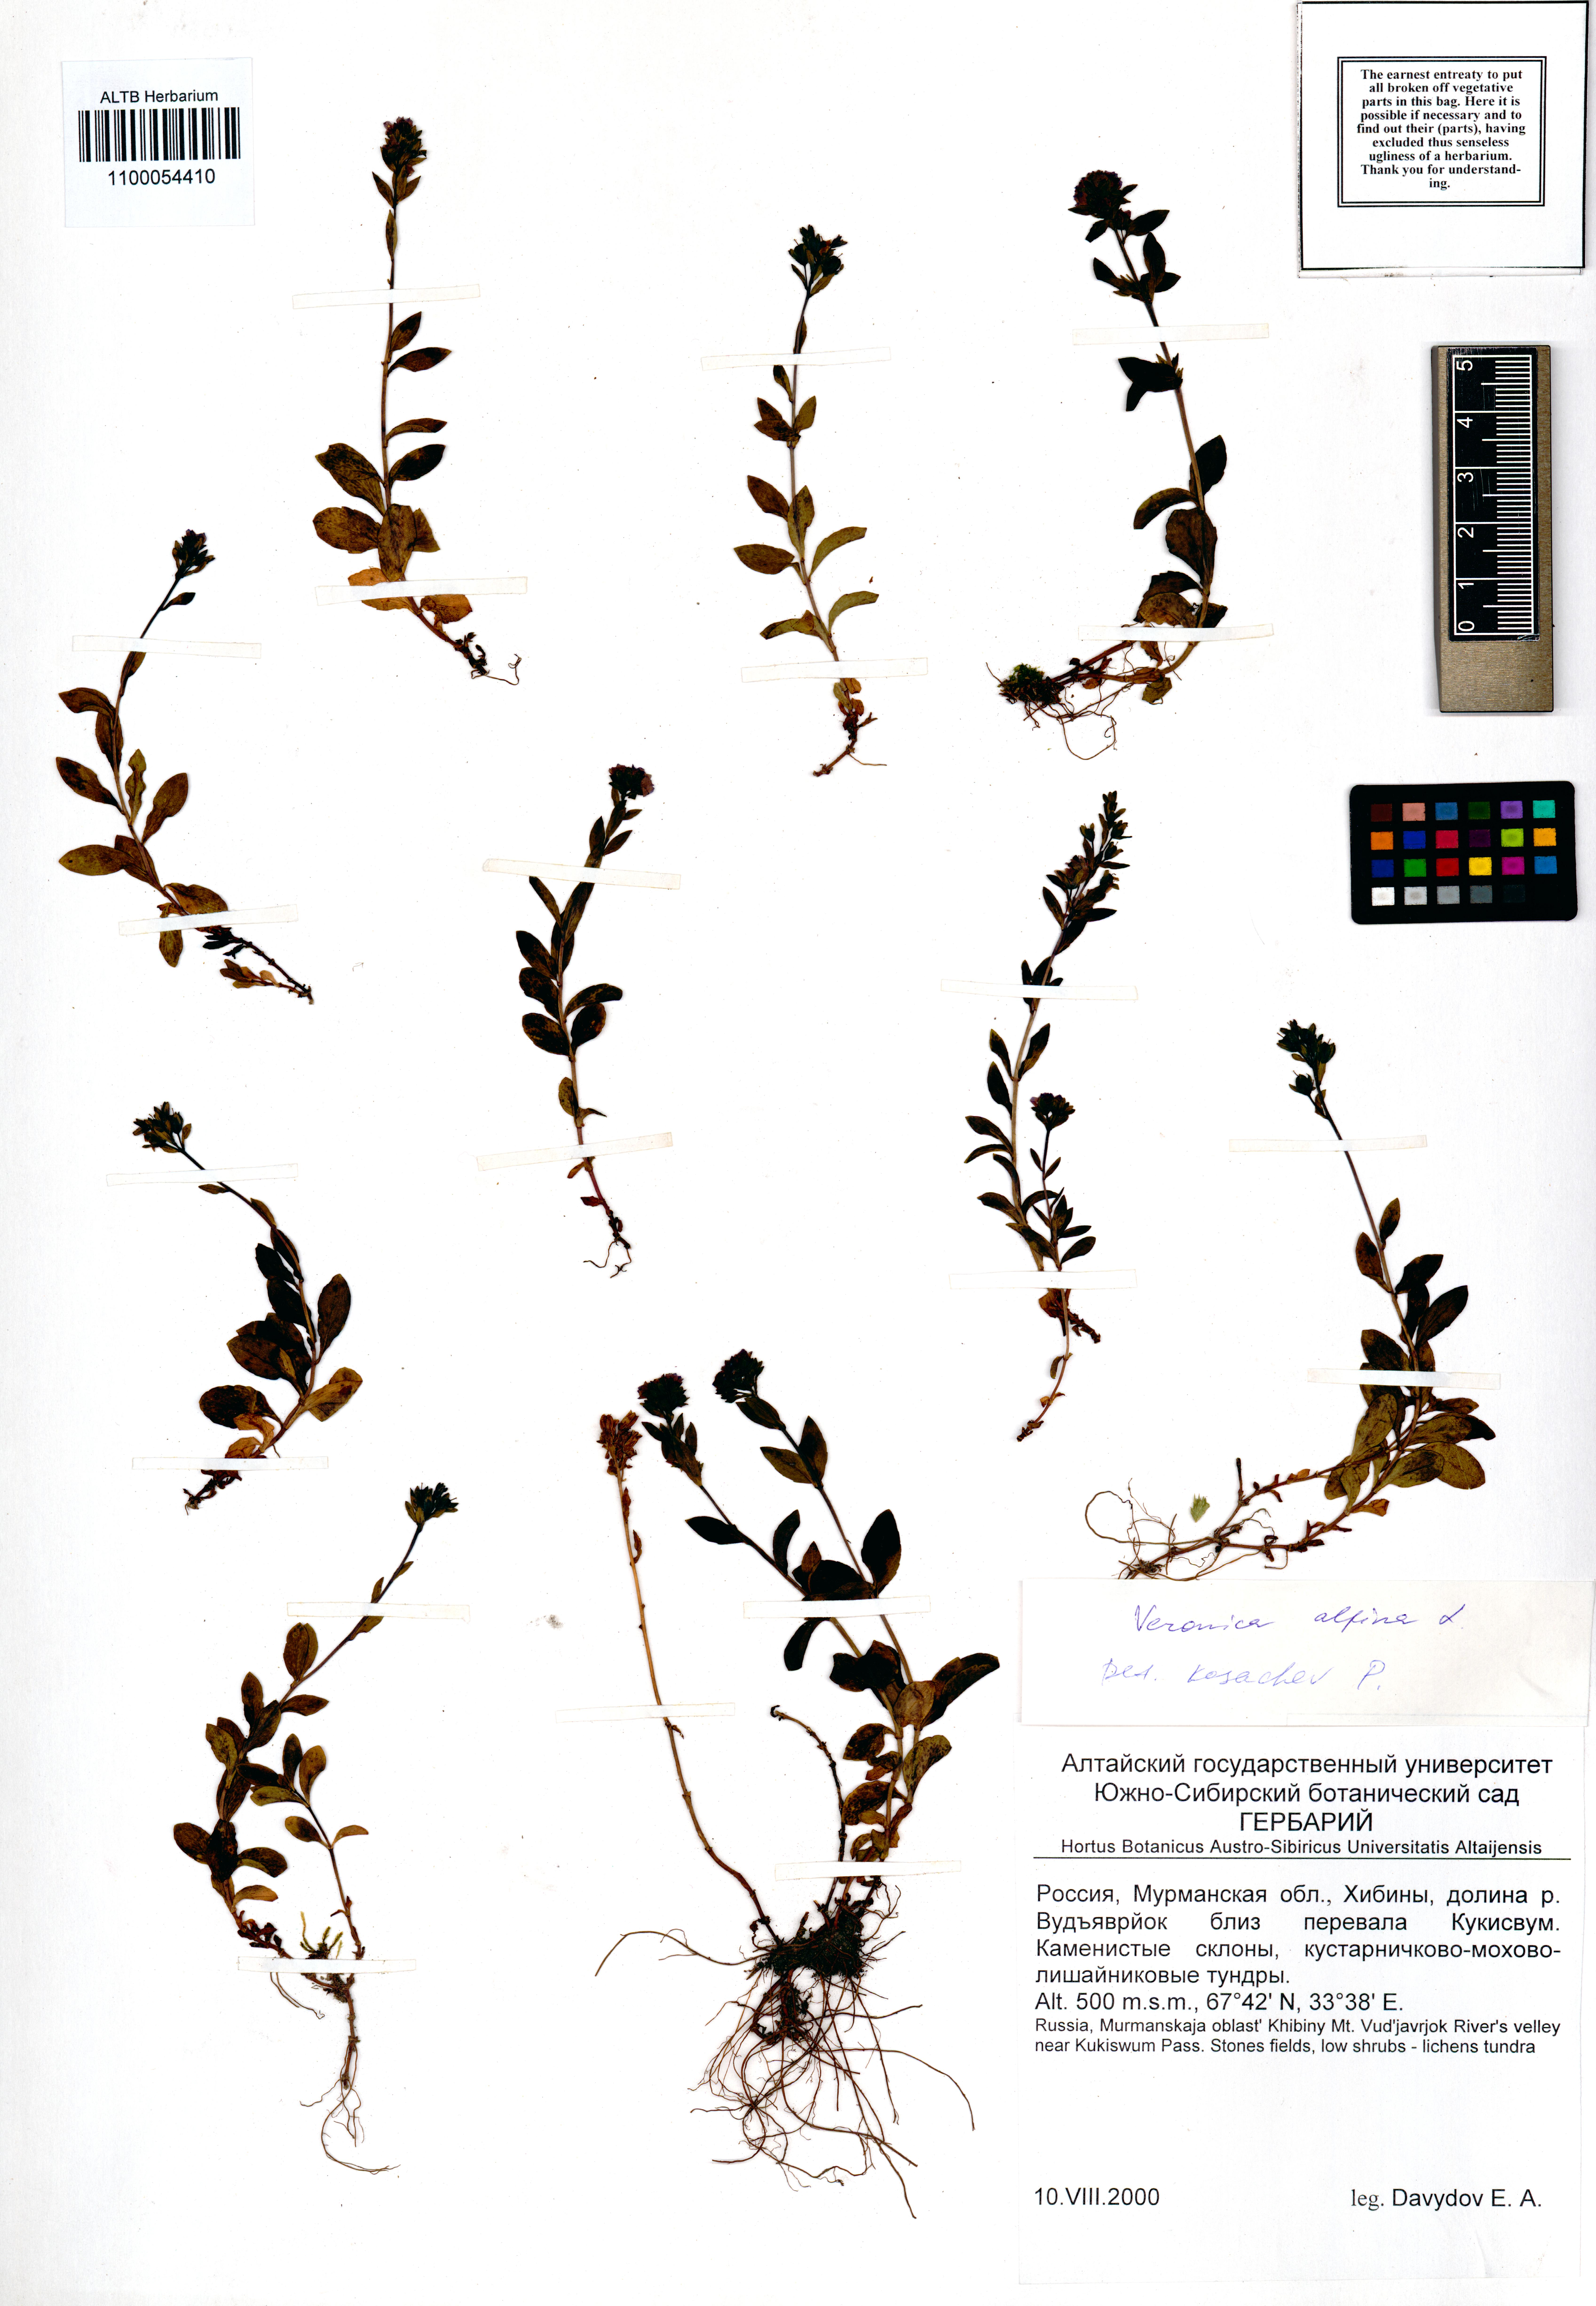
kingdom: Plantae
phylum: Tracheophyta
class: Magnoliopsida
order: Lamiales
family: Plantaginaceae
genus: Veronica
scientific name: Veronica alpina
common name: Alpine speedwell
